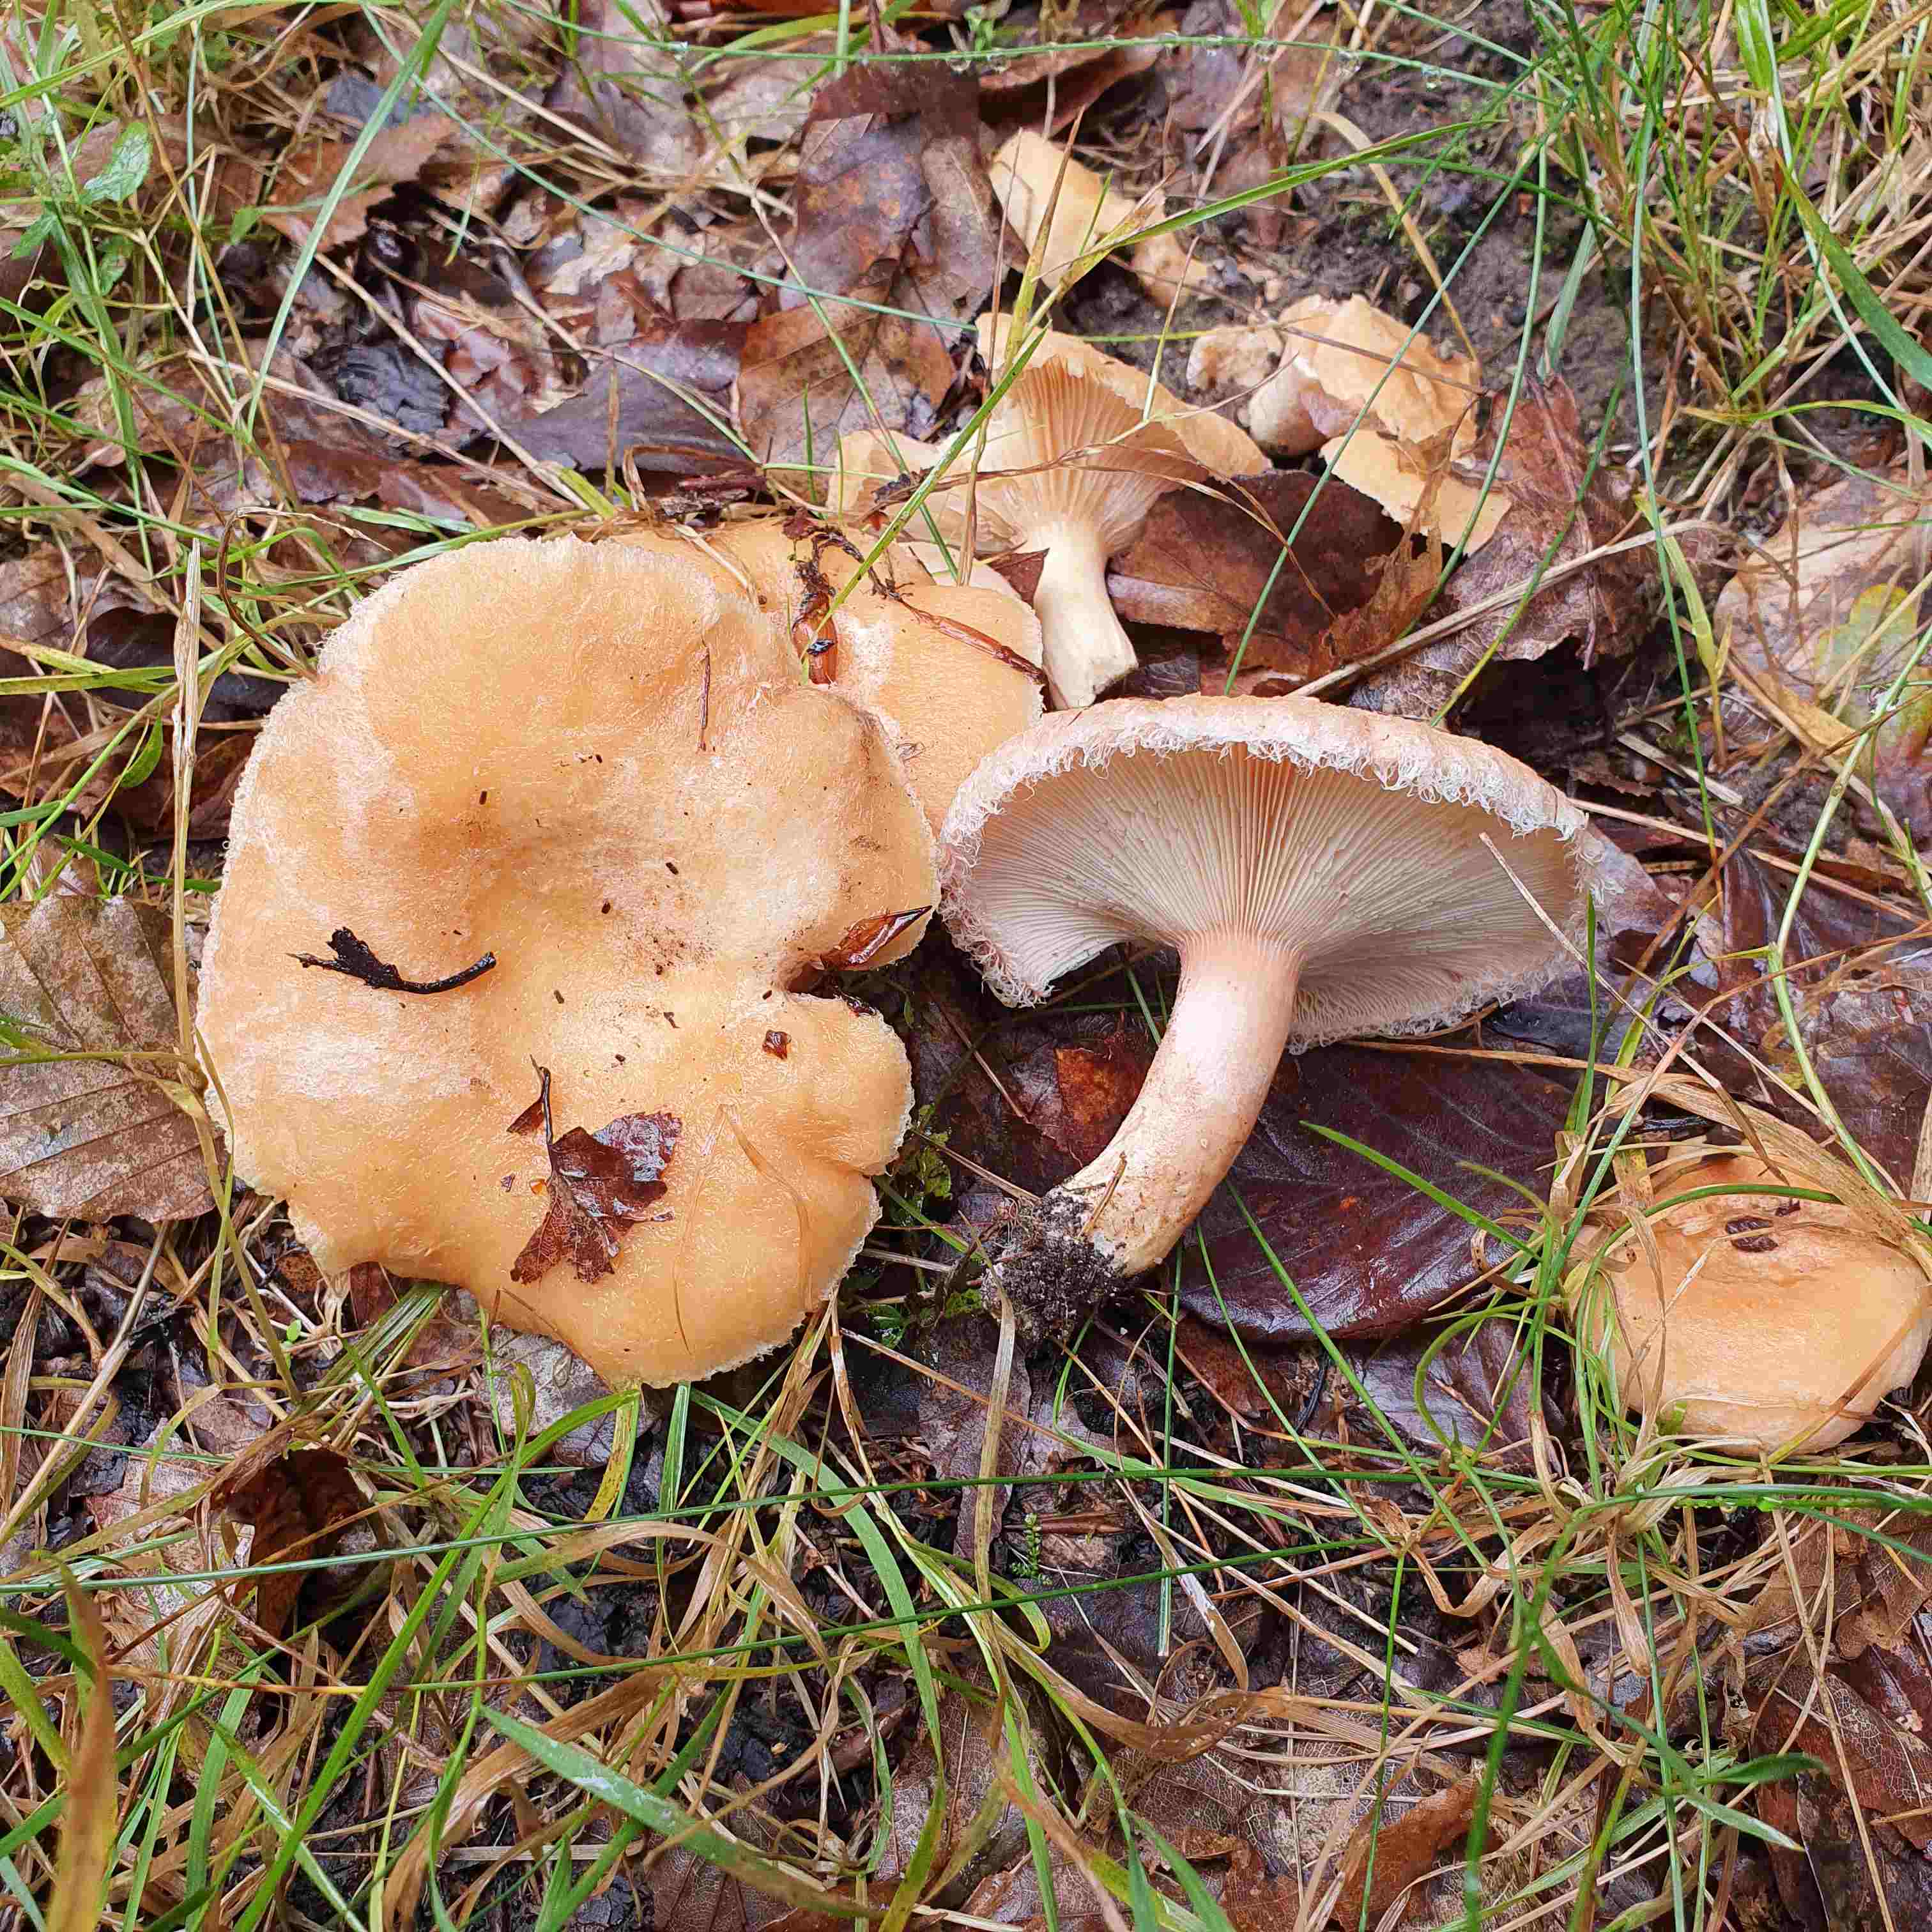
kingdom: Fungi
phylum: Basidiomycota
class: Agaricomycetes
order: Russulales
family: Russulaceae
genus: Lactarius
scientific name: Lactarius torminosus
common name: skægget mælkehat
